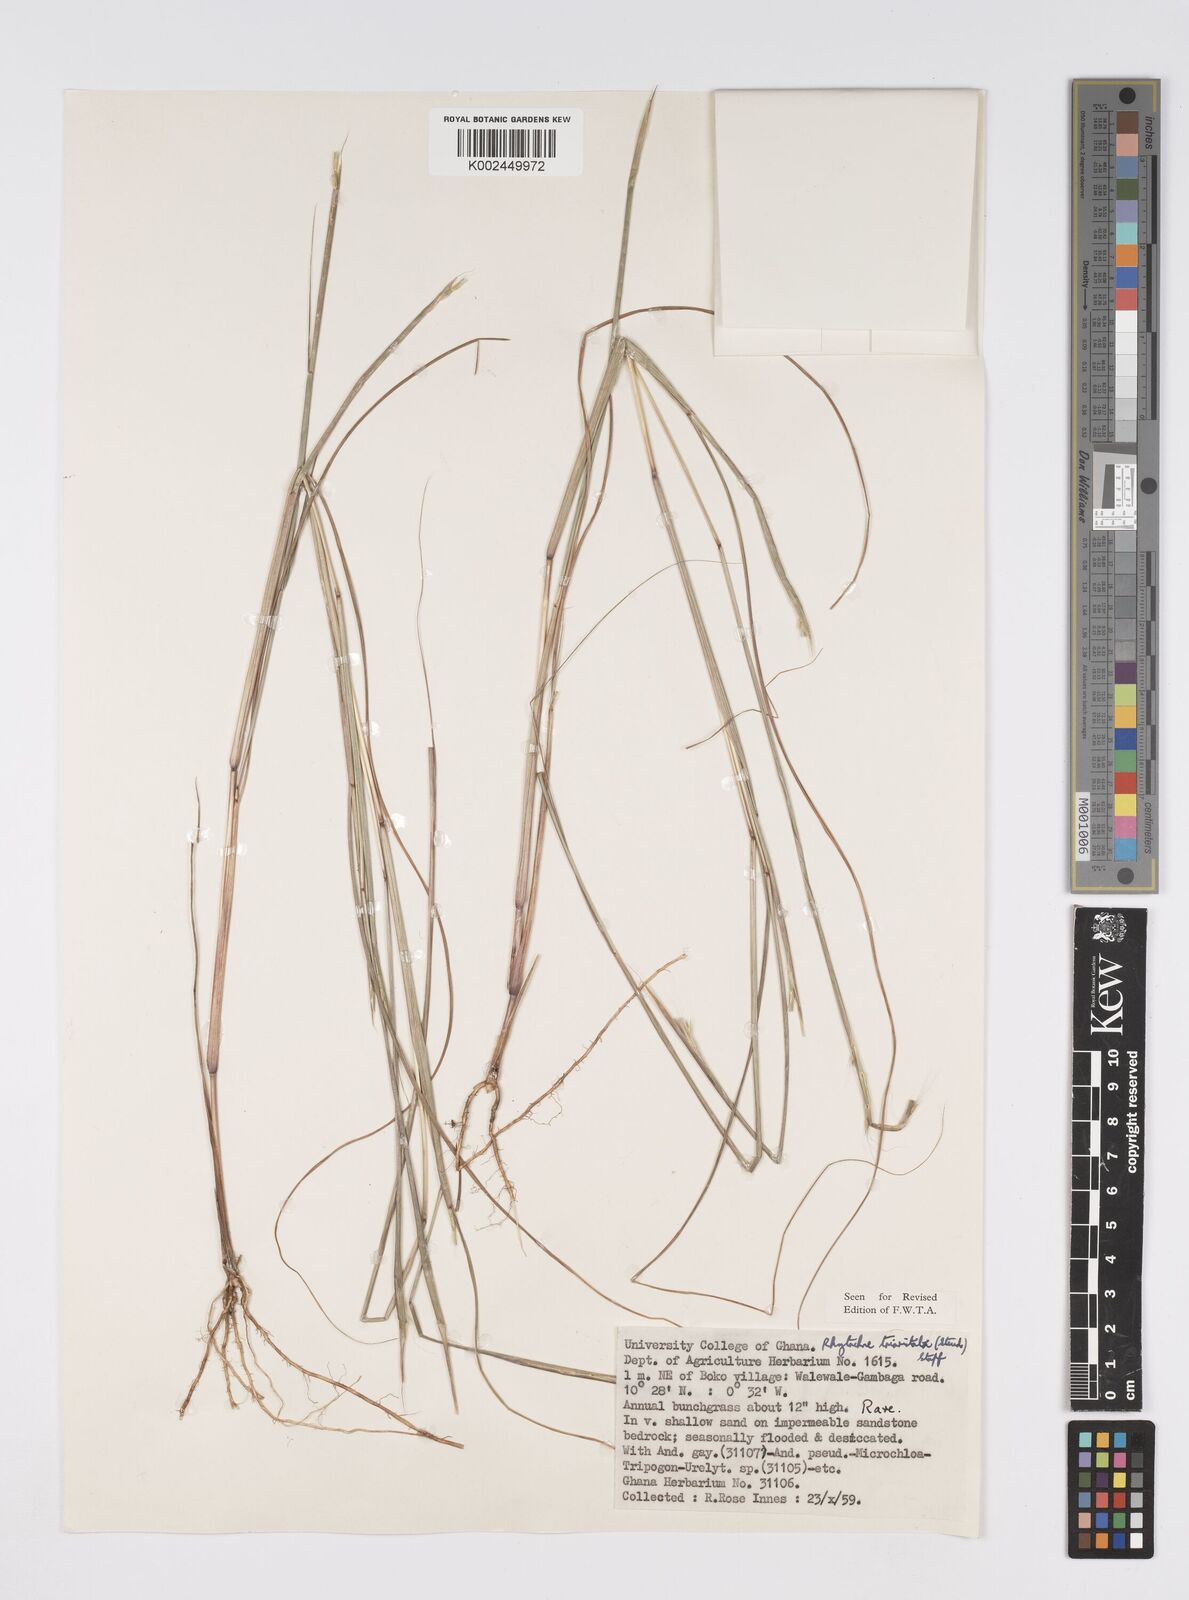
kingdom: Plantae
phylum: Tracheophyta
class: Liliopsida
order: Poales
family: Poaceae
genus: Rhytachne
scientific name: Rhytachne triaristata
